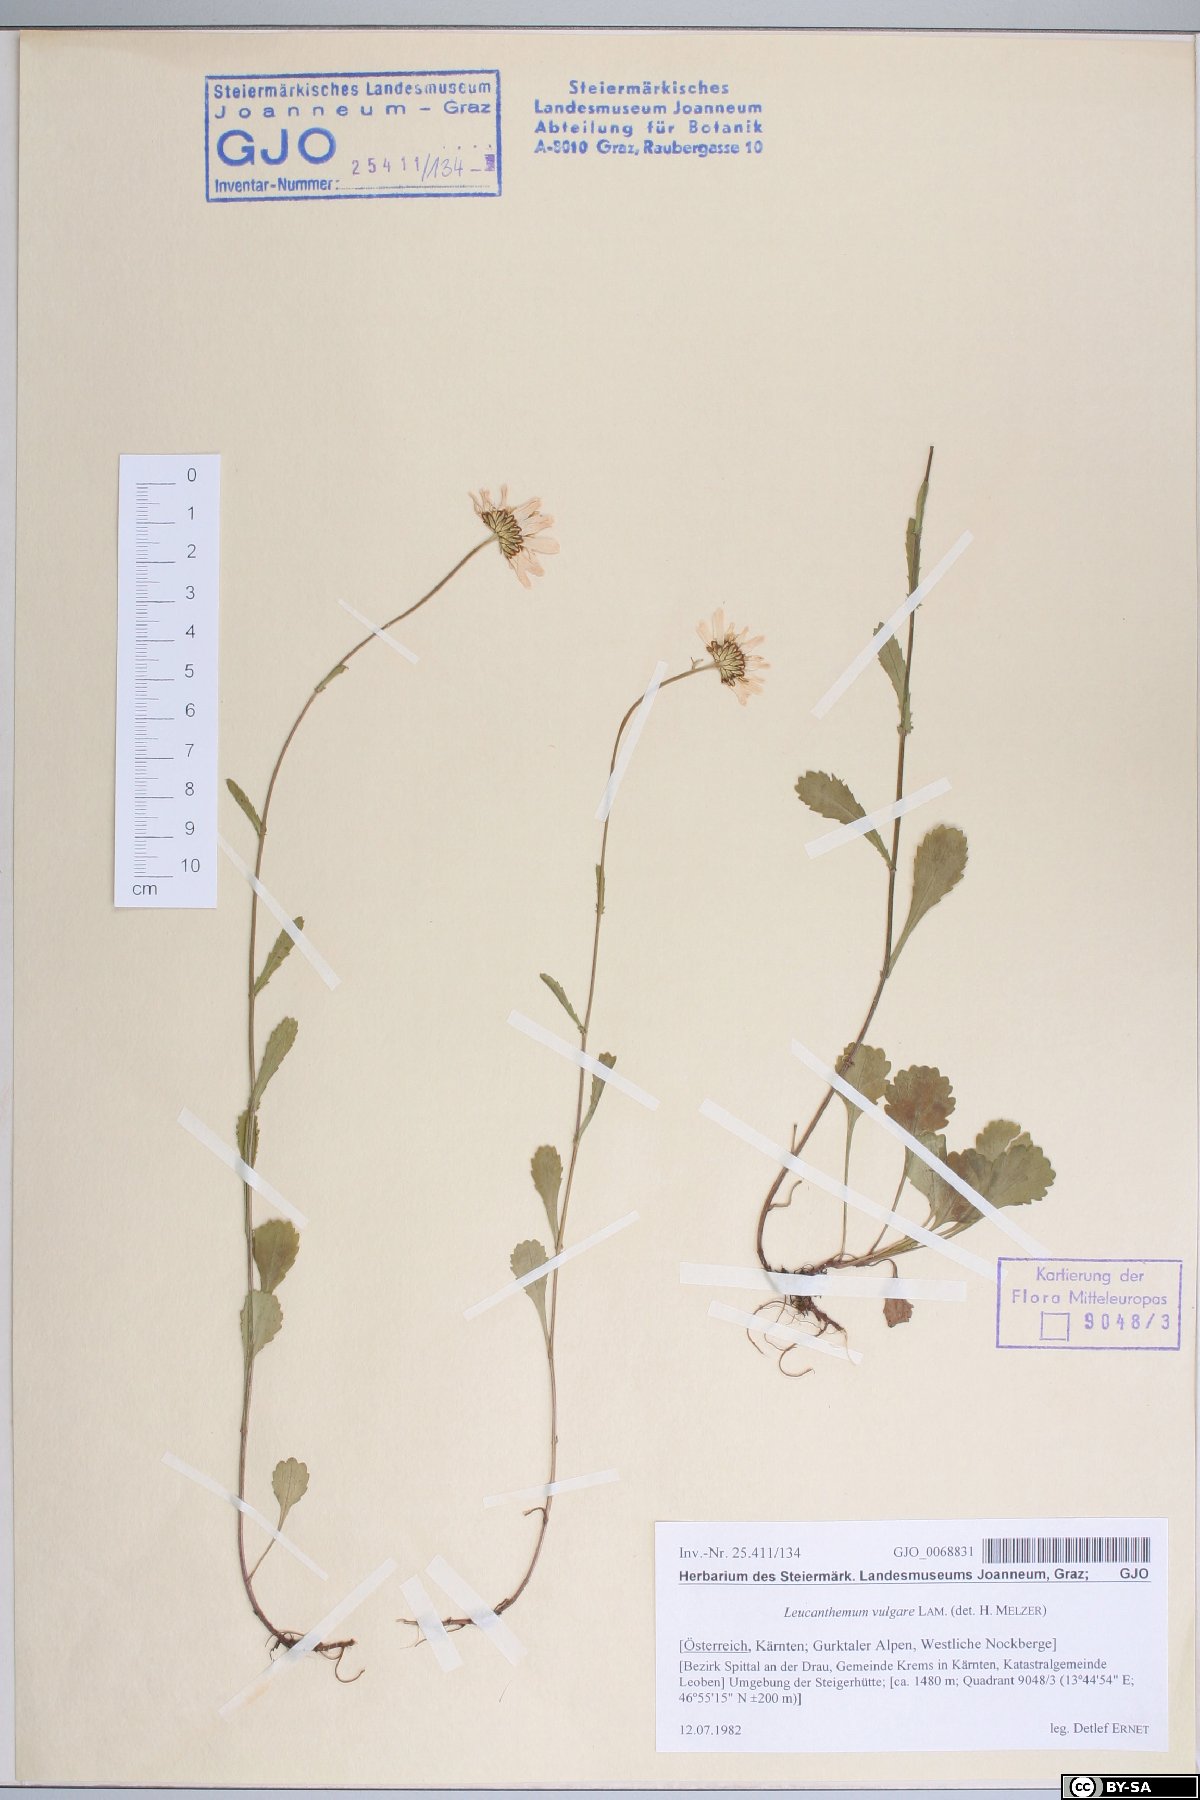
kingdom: Plantae
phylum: Tracheophyta
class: Magnoliopsida
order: Asterales
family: Asteraceae
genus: Leucanthemum
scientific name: Leucanthemum vulgare
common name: Oxeye daisy
